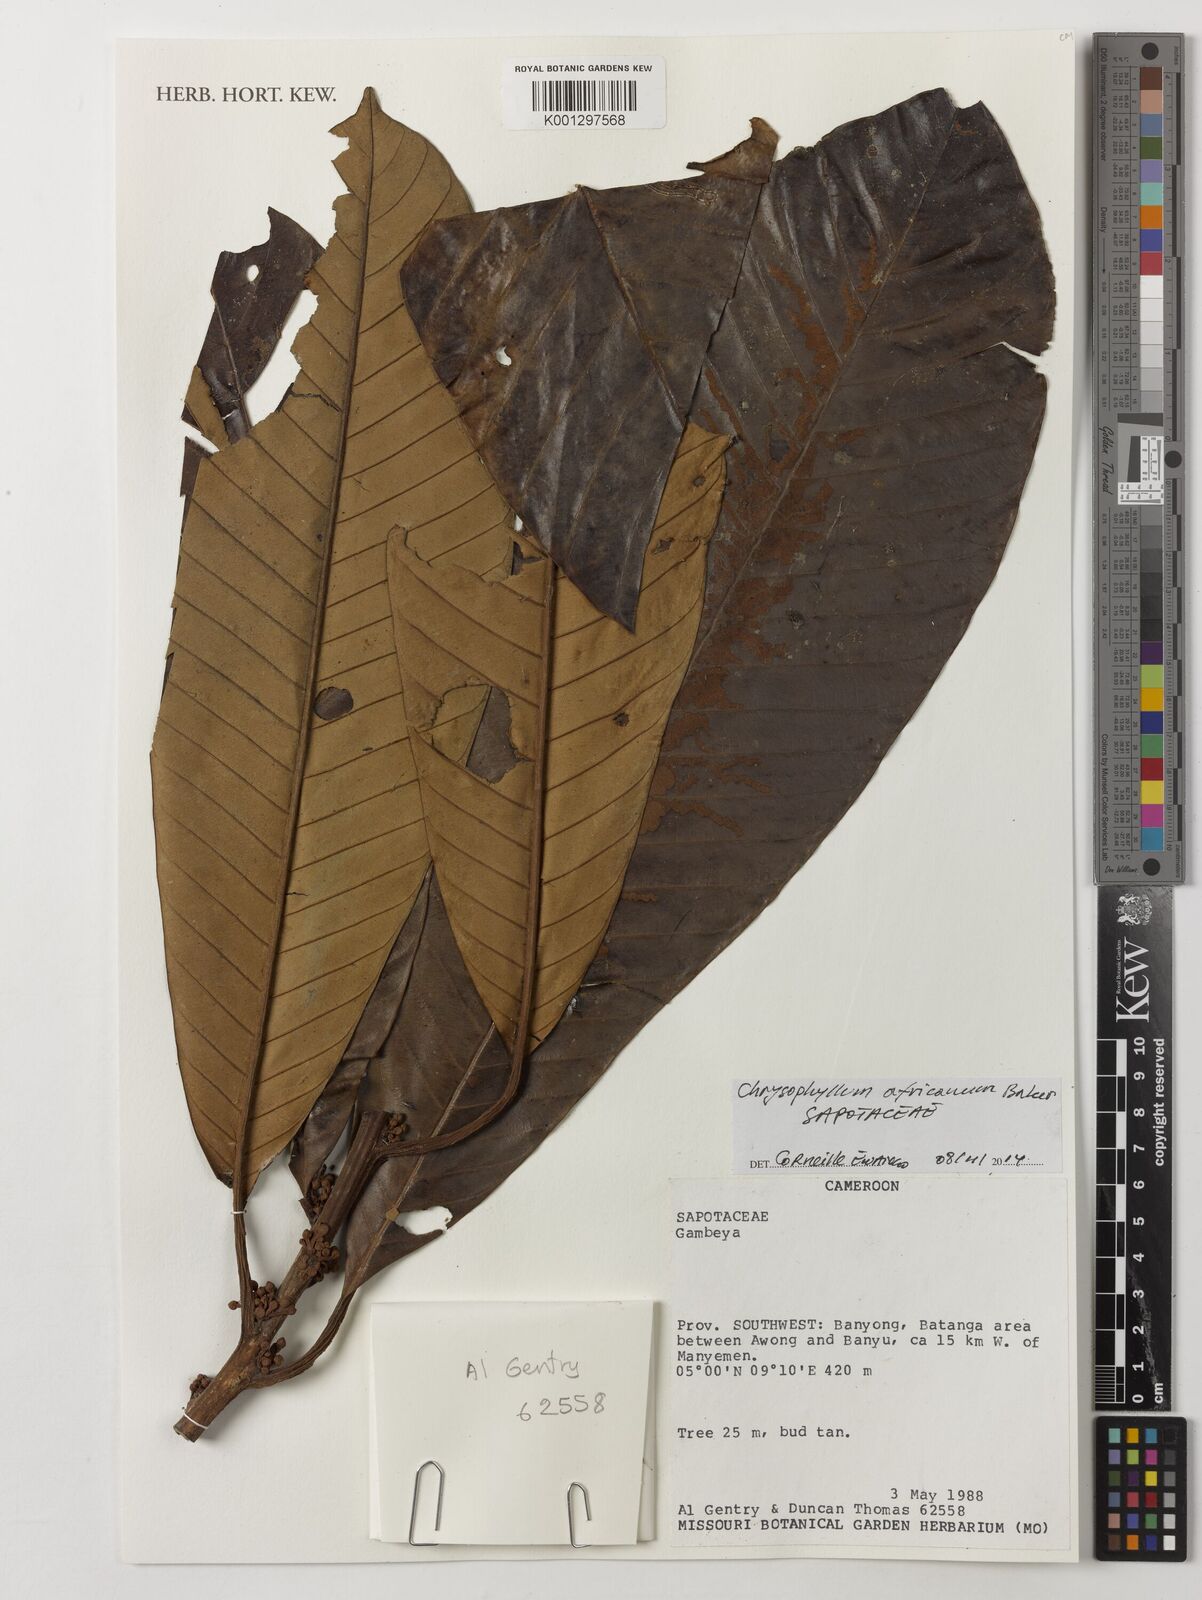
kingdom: Plantae
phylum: Tracheophyta
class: Magnoliopsida
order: Ericales
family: Sapotaceae
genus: Gambeya
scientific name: Gambeya africana
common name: African star apple
